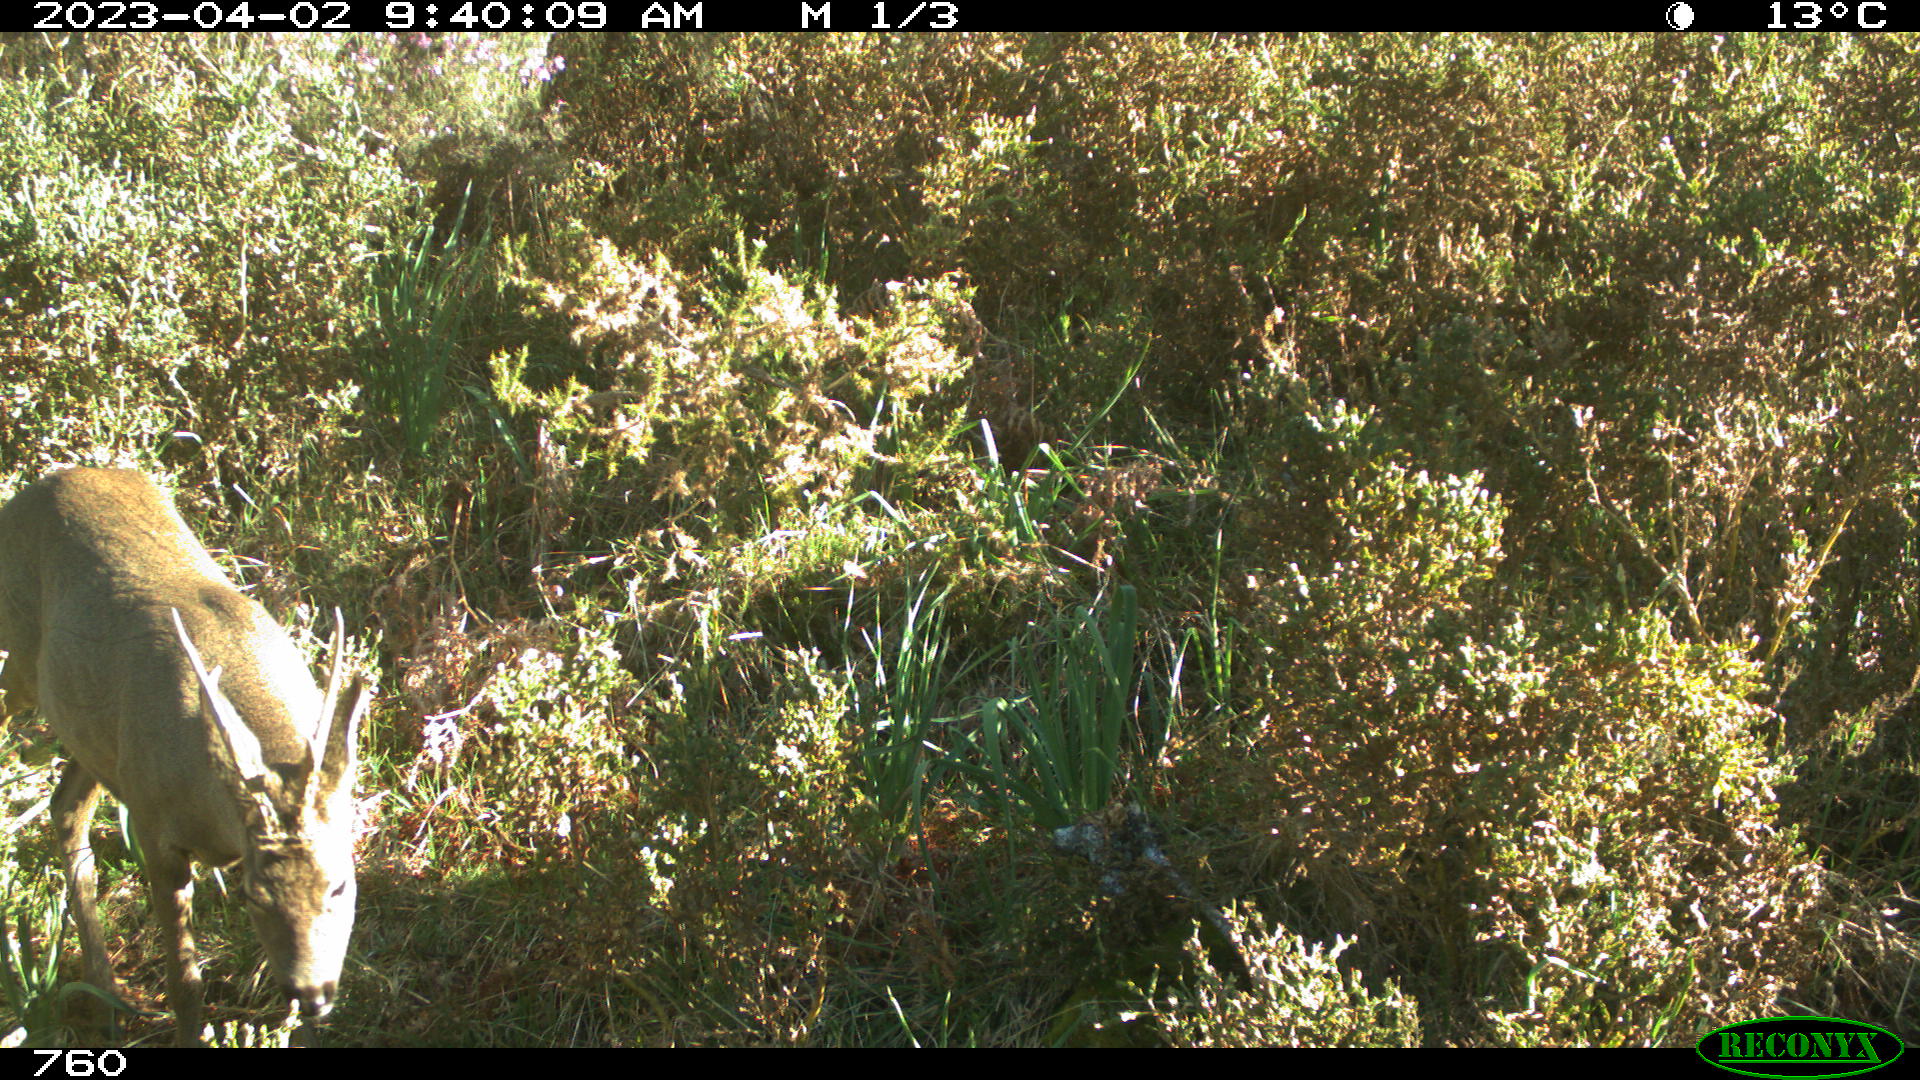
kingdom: Animalia
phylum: Chordata
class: Mammalia
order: Artiodactyla
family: Cervidae
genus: Capreolus
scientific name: Capreolus capreolus
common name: Western roe deer
